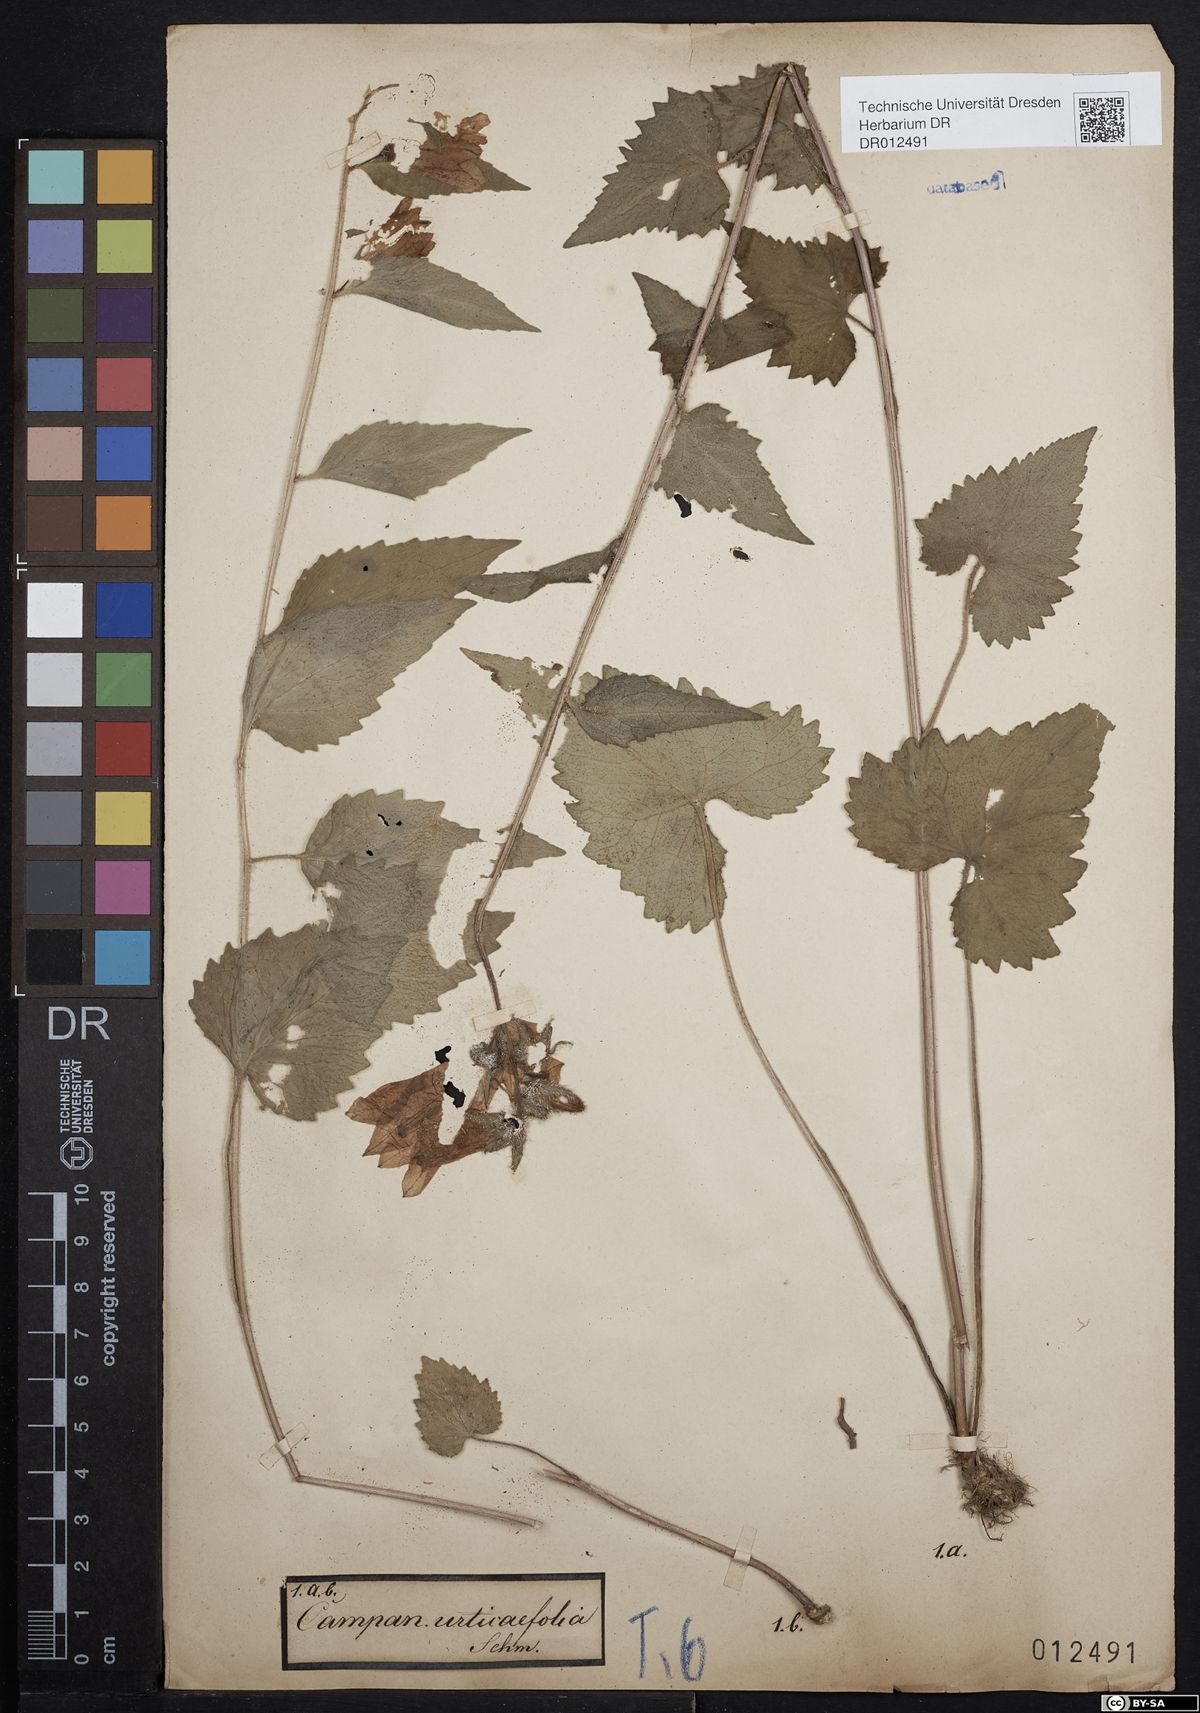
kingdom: Plantae
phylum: Tracheophyta
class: Magnoliopsida
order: Asterales
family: Campanulaceae
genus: Campanula
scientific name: Campanula trachelium
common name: Nettle-leaved bellflower
